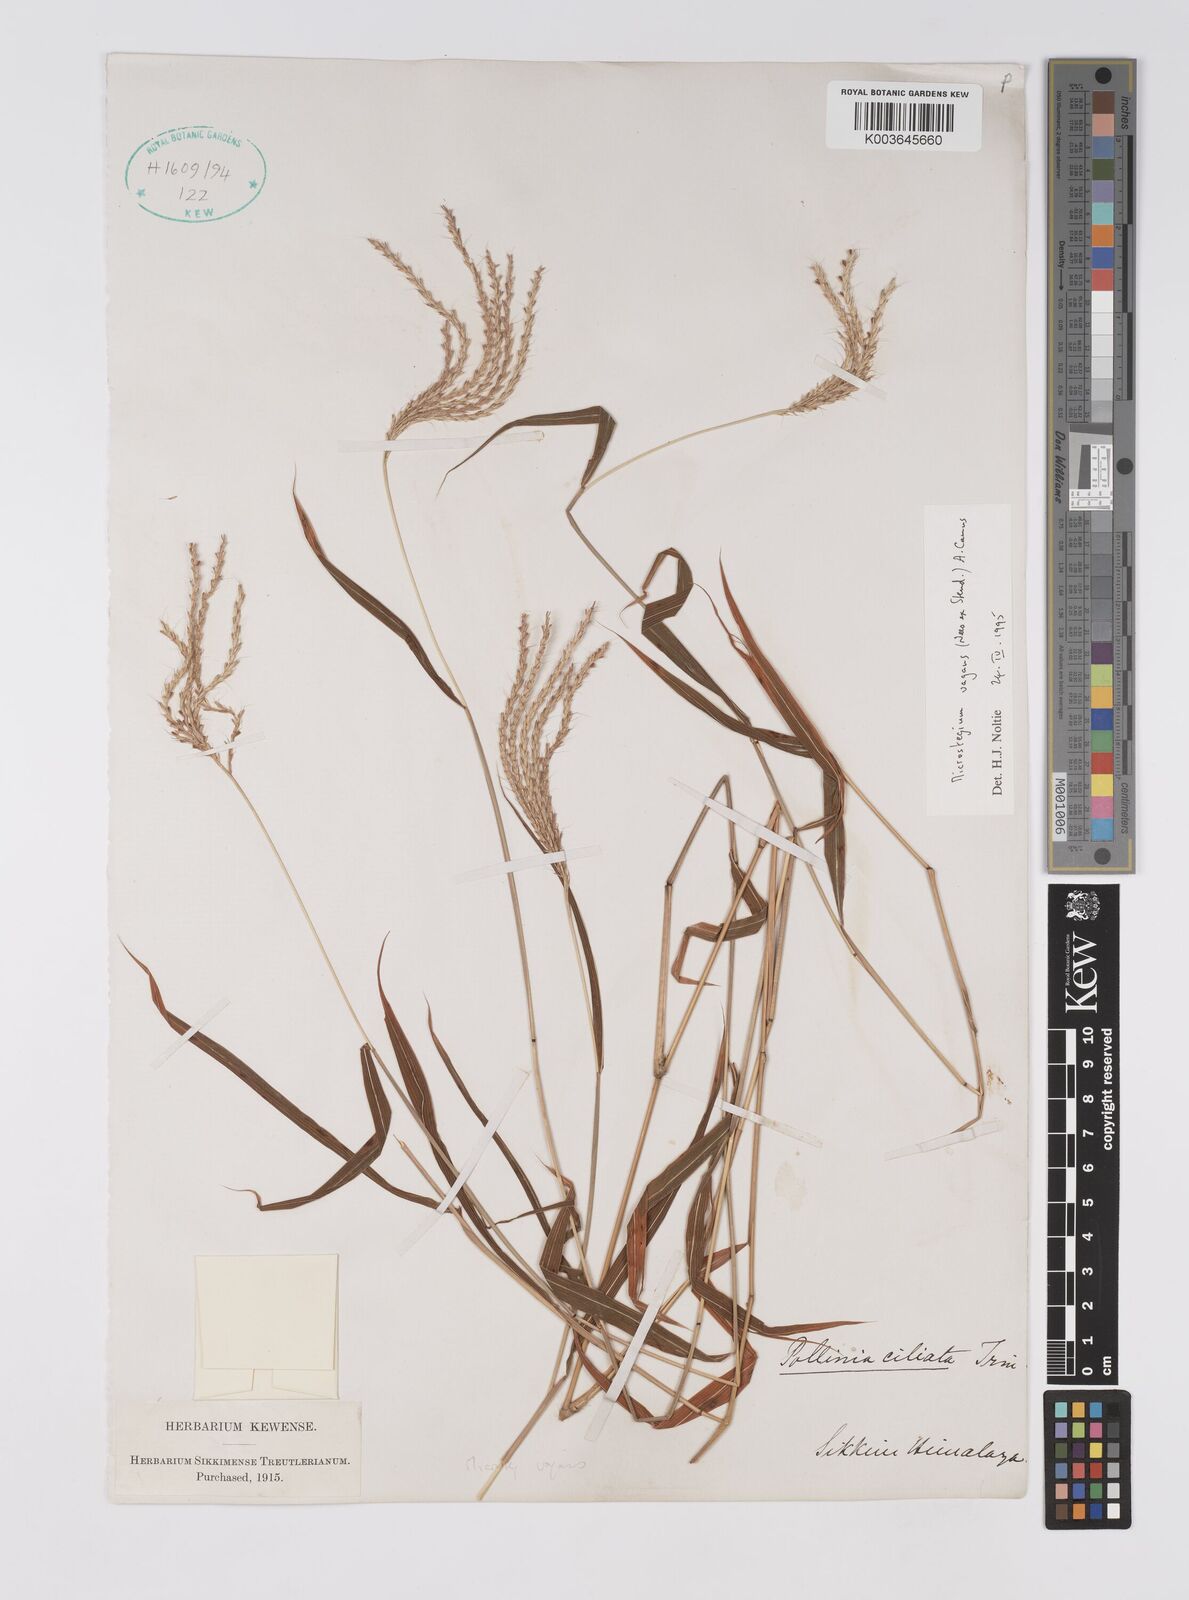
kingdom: Plantae
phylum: Tracheophyta
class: Liliopsida
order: Poales
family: Poaceae
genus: Microstegium
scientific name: Microstegium fasciculatum
